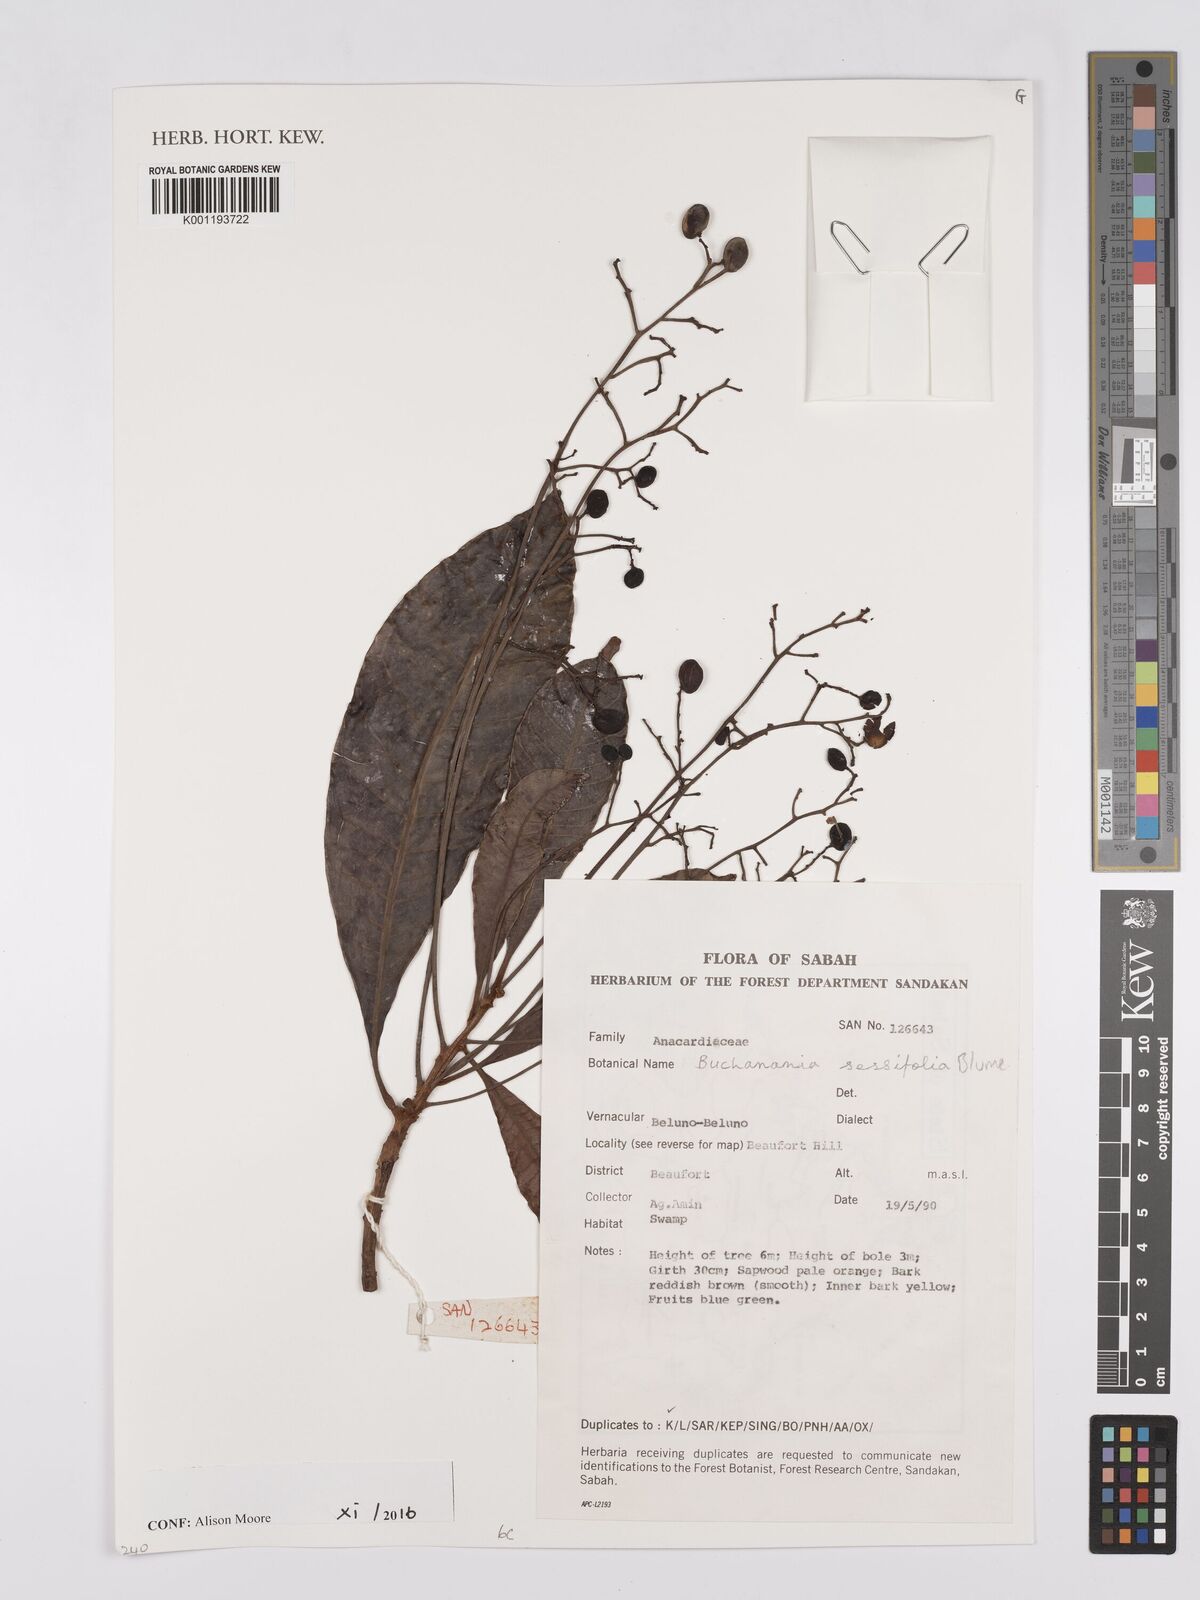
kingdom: Plantae
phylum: Tracheophyta
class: Magnoliopsida
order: Sapindales
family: Anacardiaceae
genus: Buchanania
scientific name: Buchanania sessifolia
